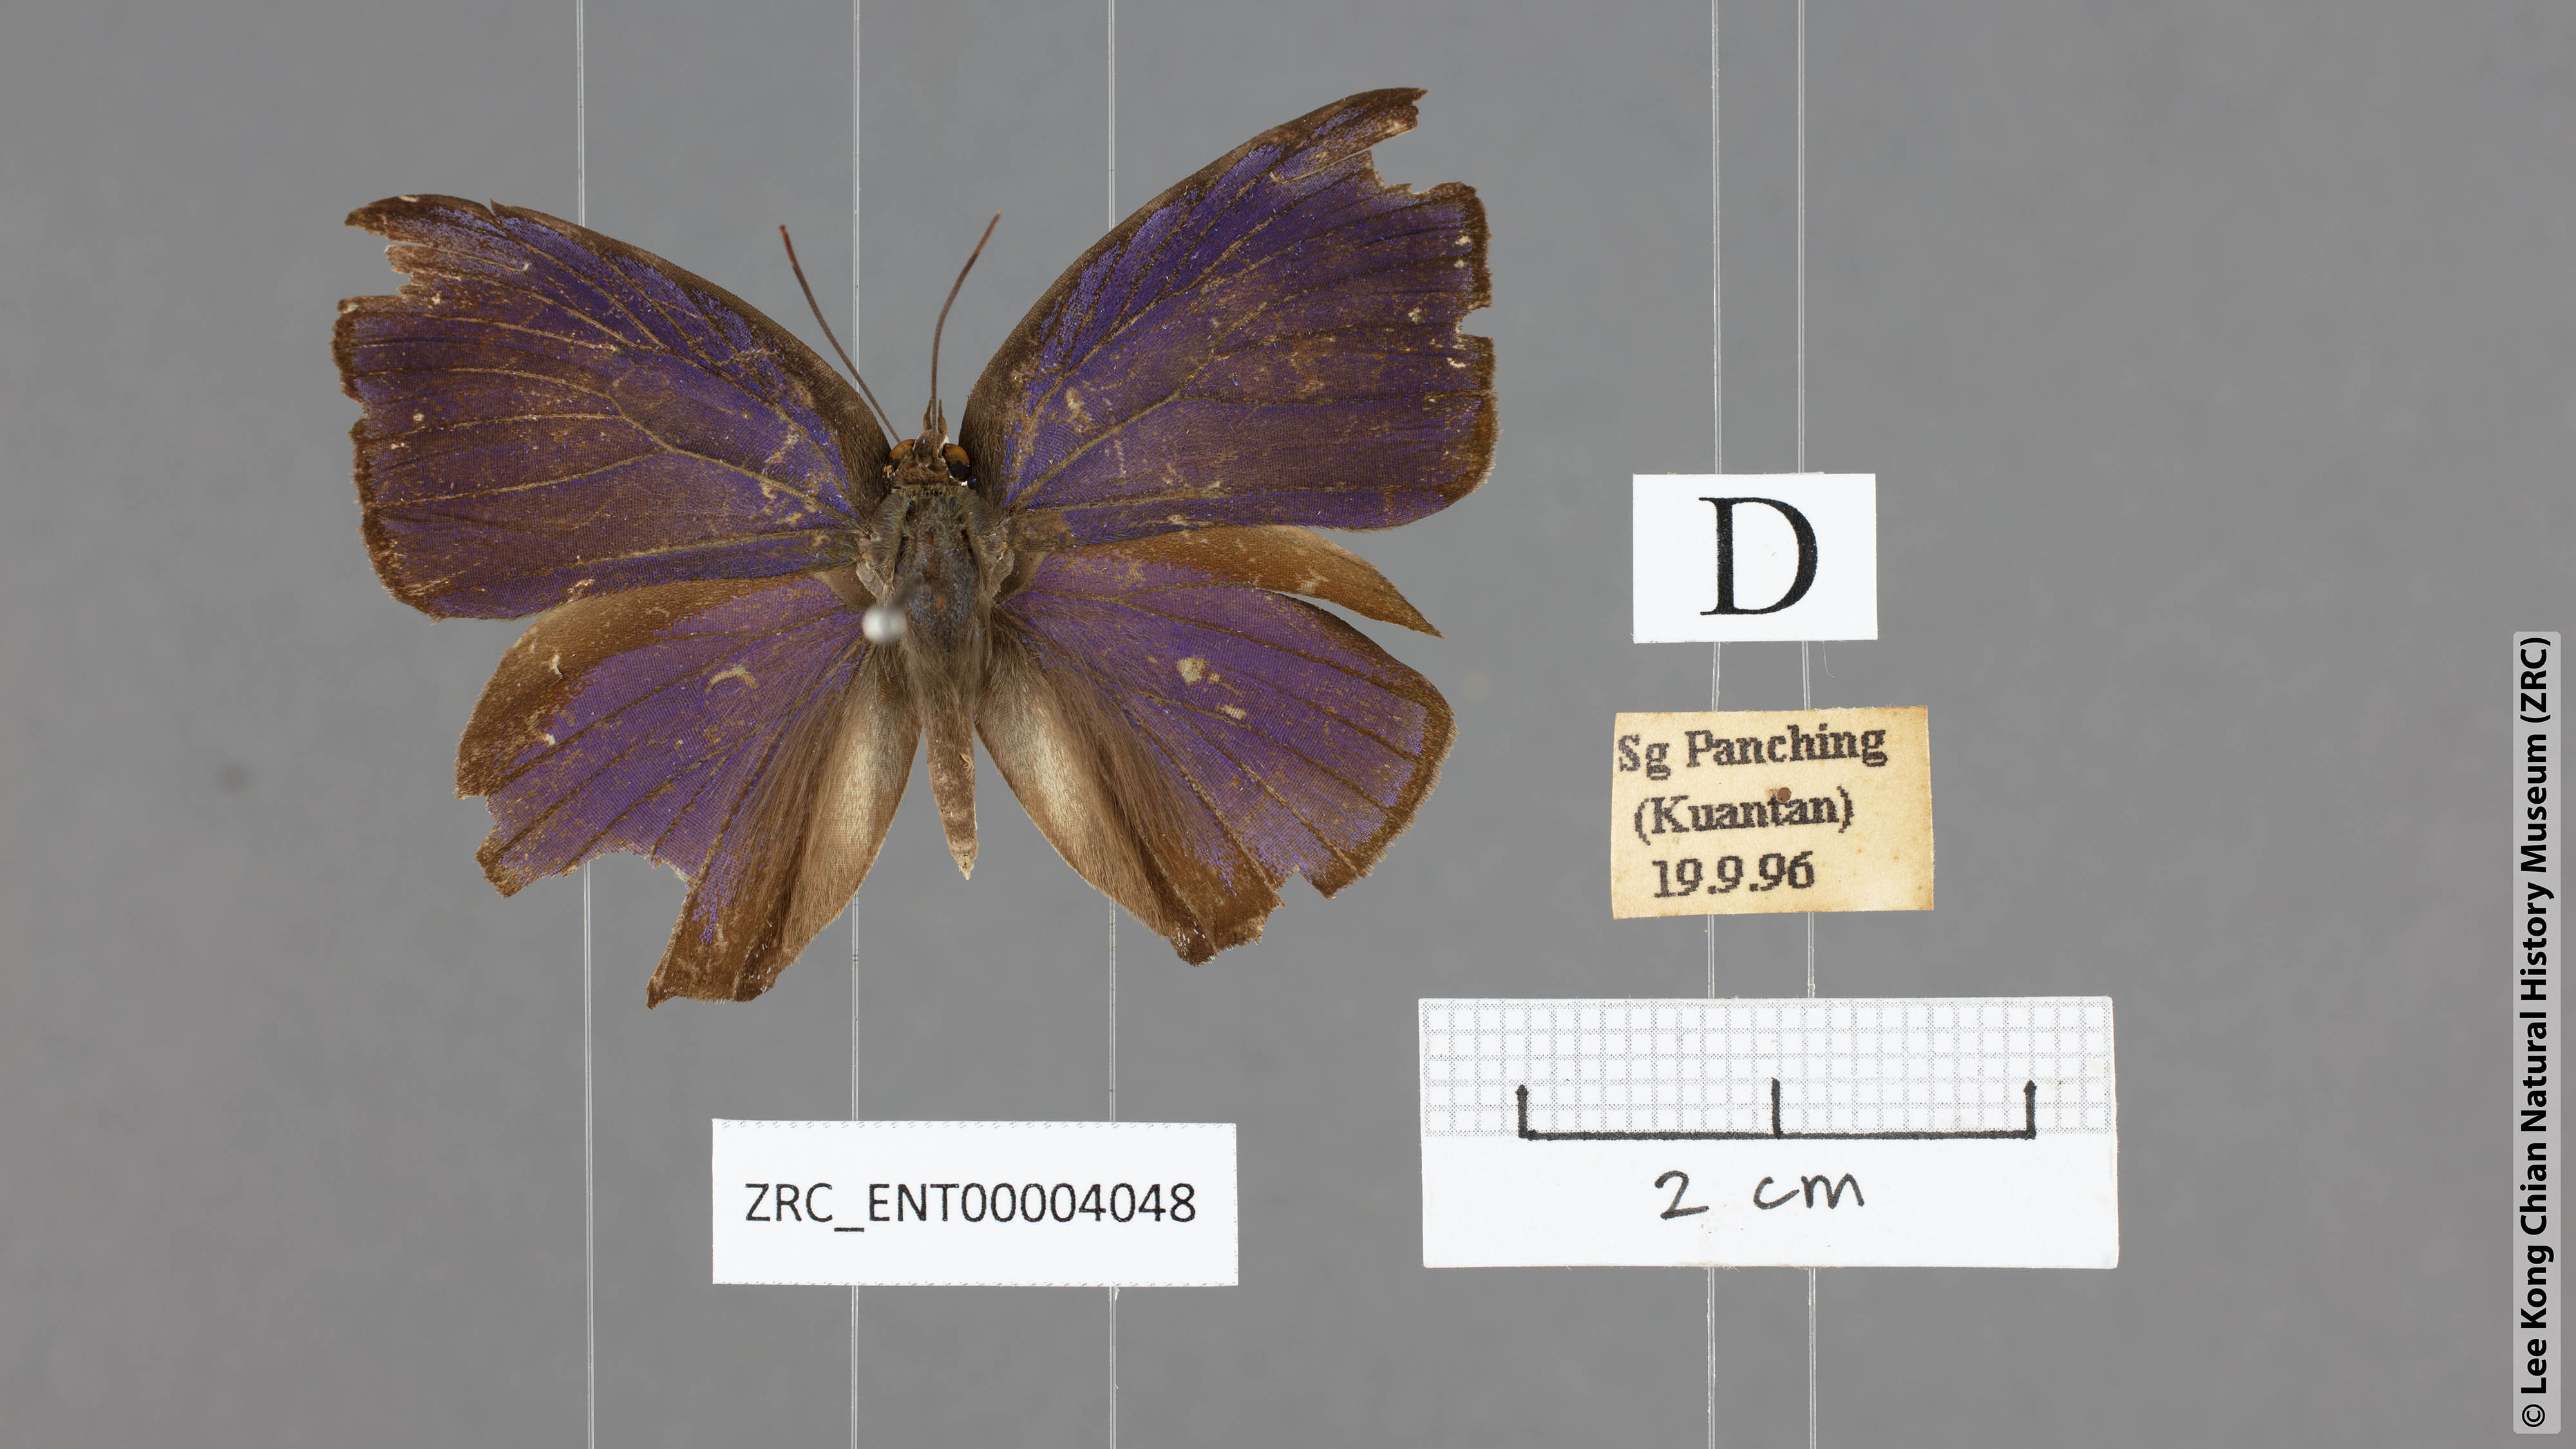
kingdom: Animalia
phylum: Arthropoda
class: Insecta
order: Lepidoptera
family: Lycaenidae
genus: Arhopala
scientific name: Arhopala
